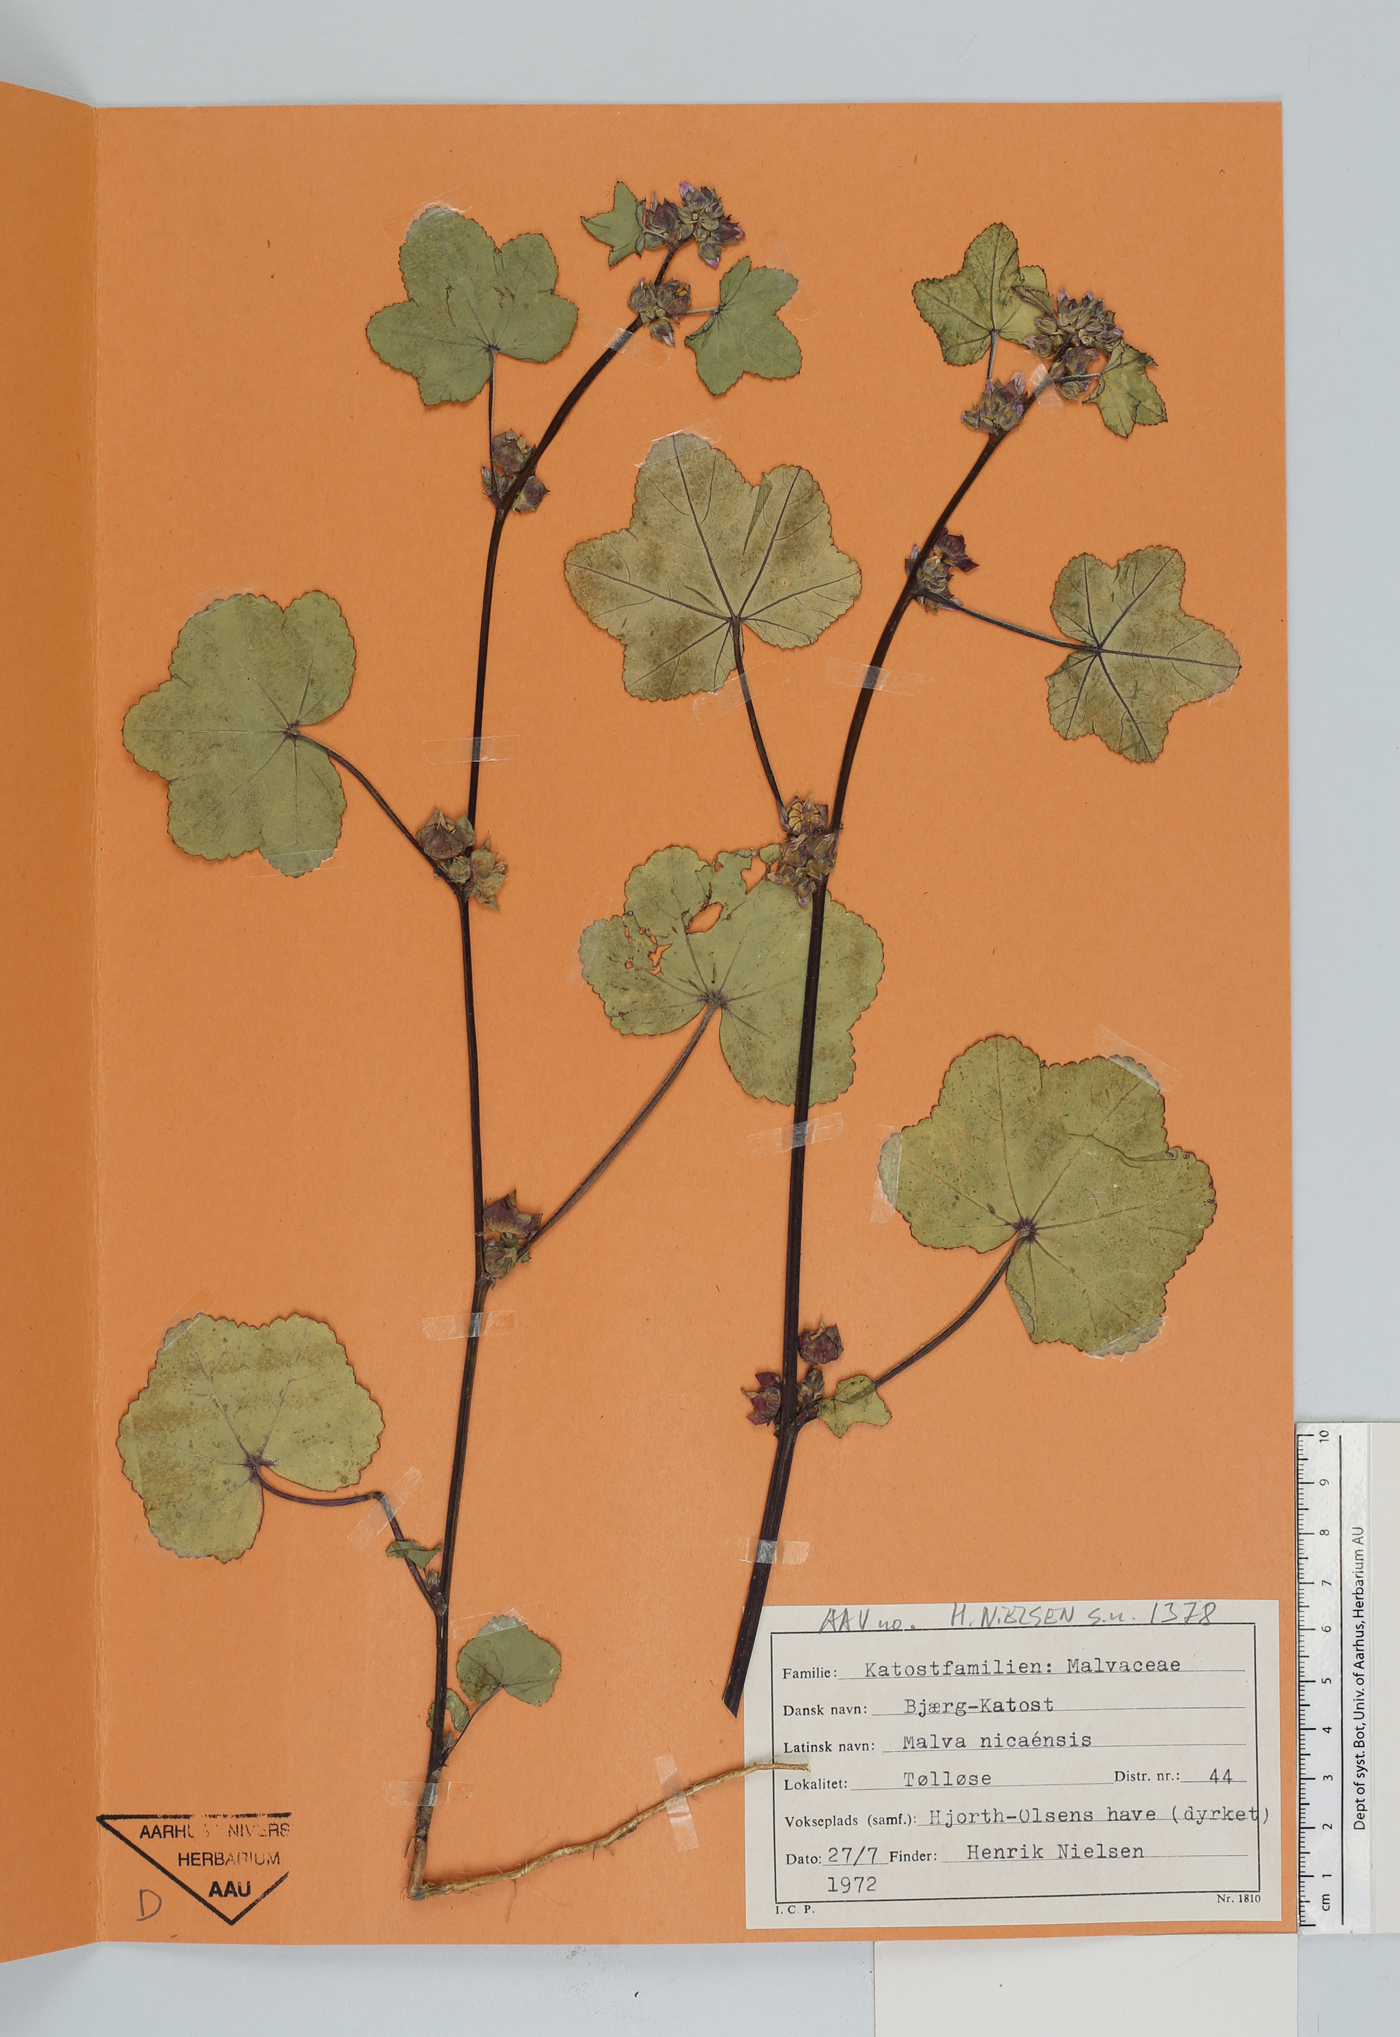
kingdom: Plantae
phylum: Tracheophyta
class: Magnoliopsida
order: Malvales
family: Malvaceae
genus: Malva
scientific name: Malva nicaeensis
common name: French mallow
